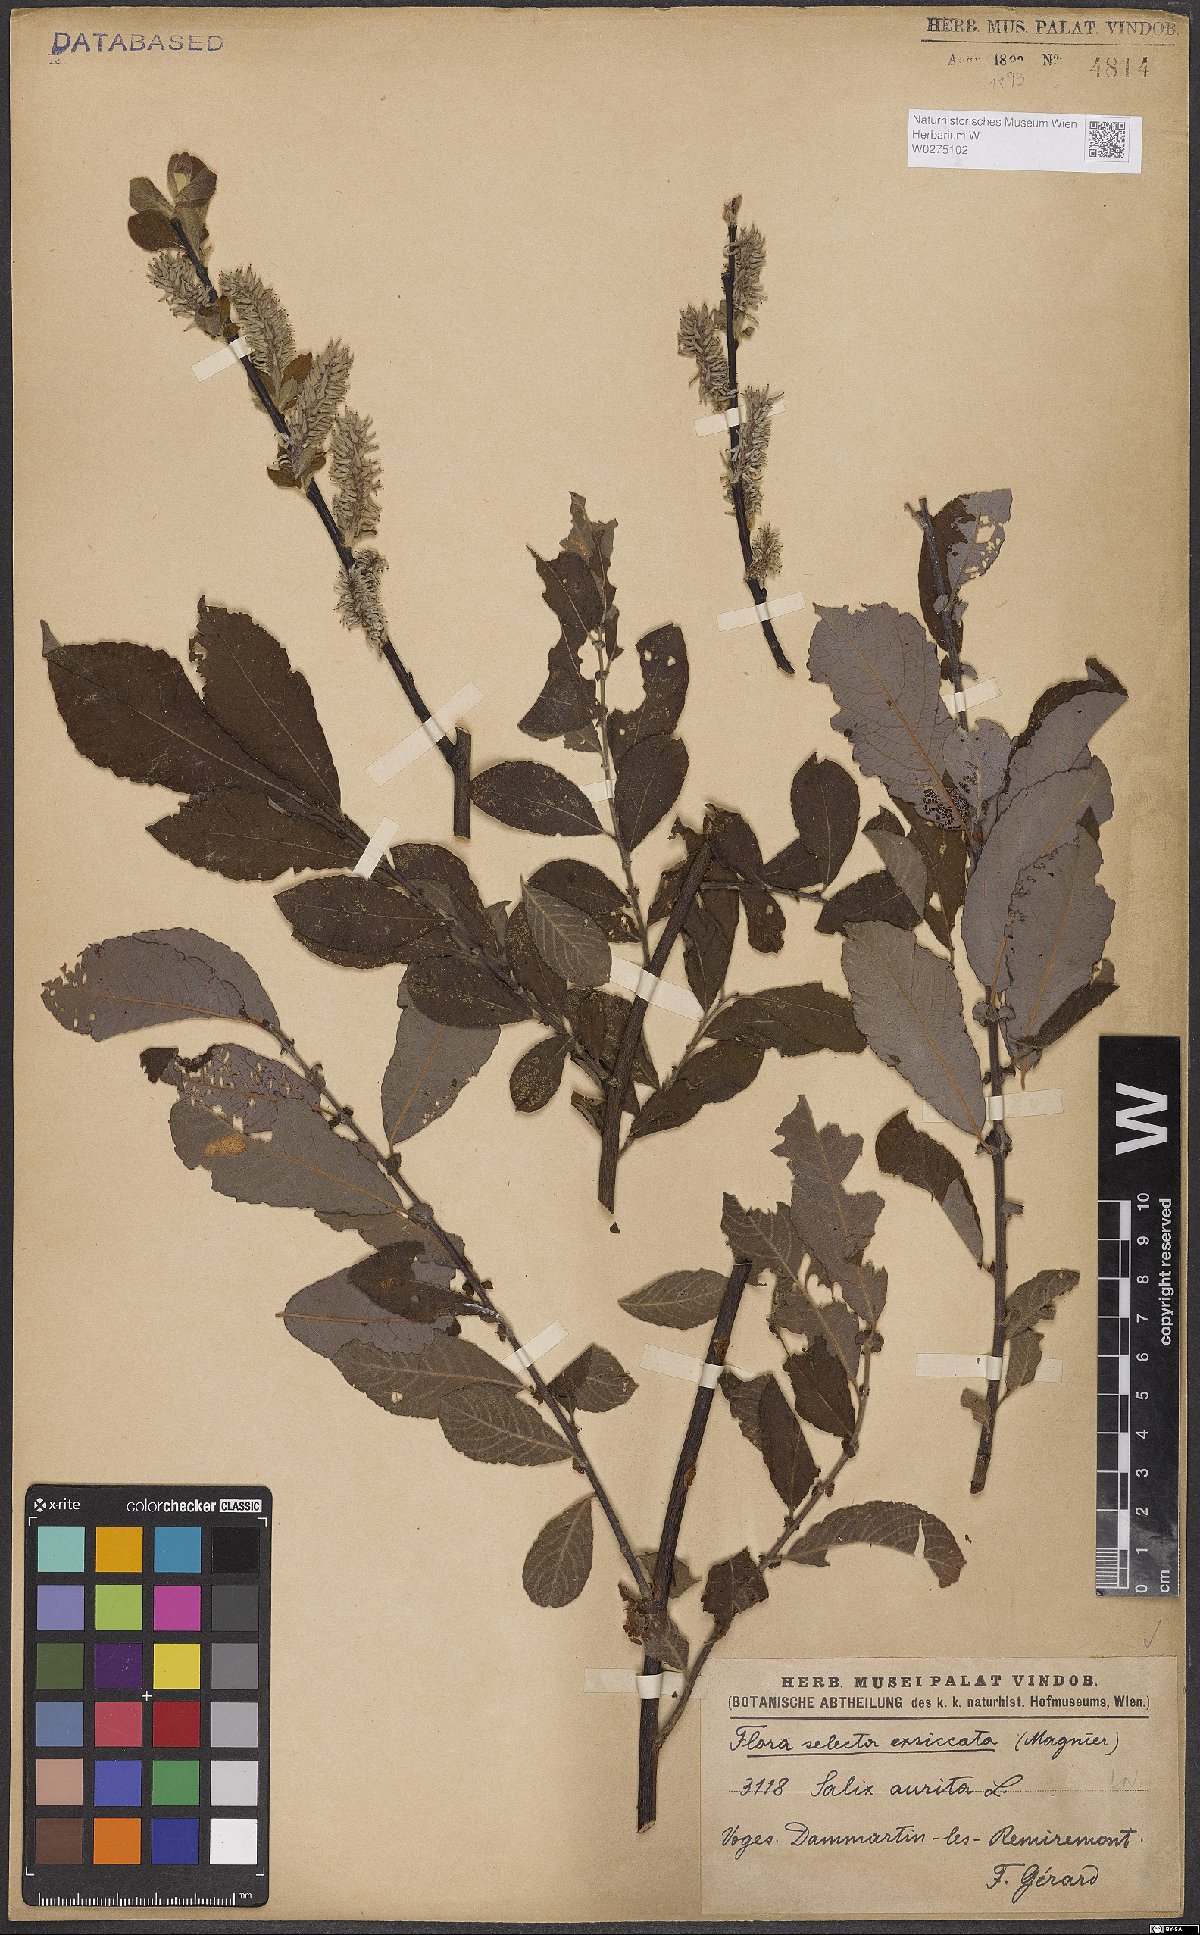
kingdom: Plantae
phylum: Tracheophyta
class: Magnoliopsida
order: Malpighiales
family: Salicaceae
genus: Salix
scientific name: Salix aurita
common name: Eared willow
